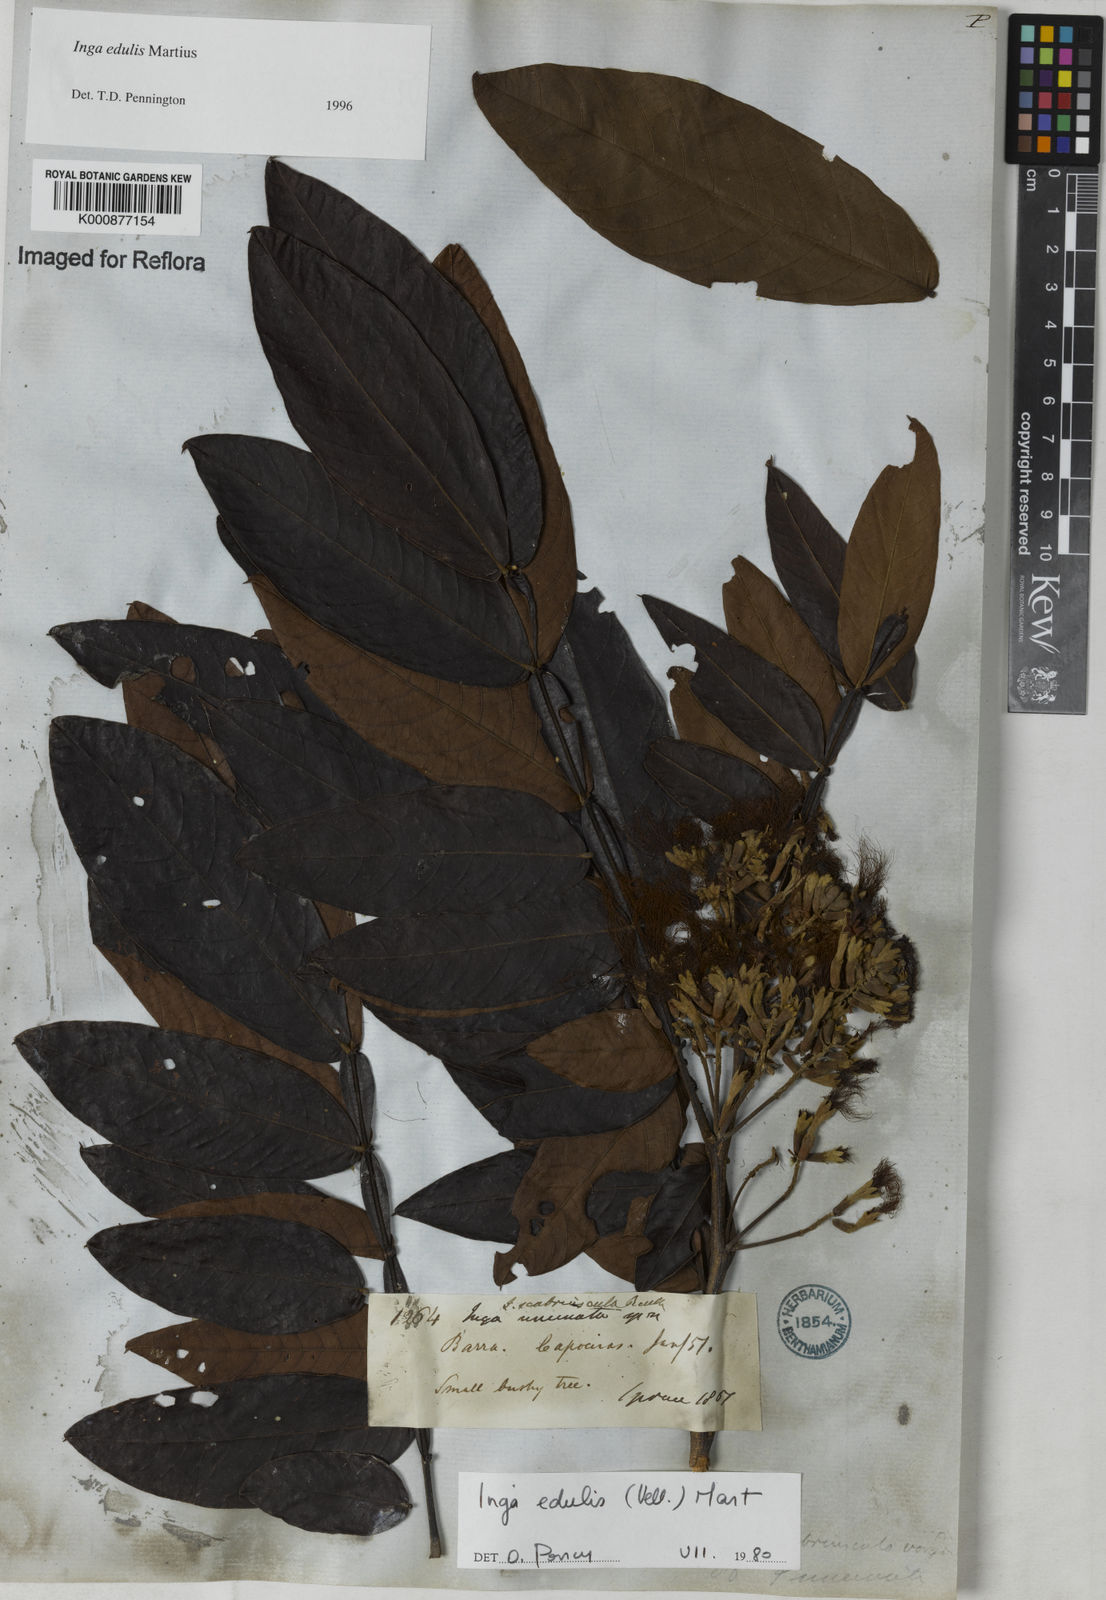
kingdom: Plantae
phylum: Tracheophyta
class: Magnoliopsida
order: Fabales
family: Fabaceae
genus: Inga
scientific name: Inga edulis
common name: Ice cream bean
